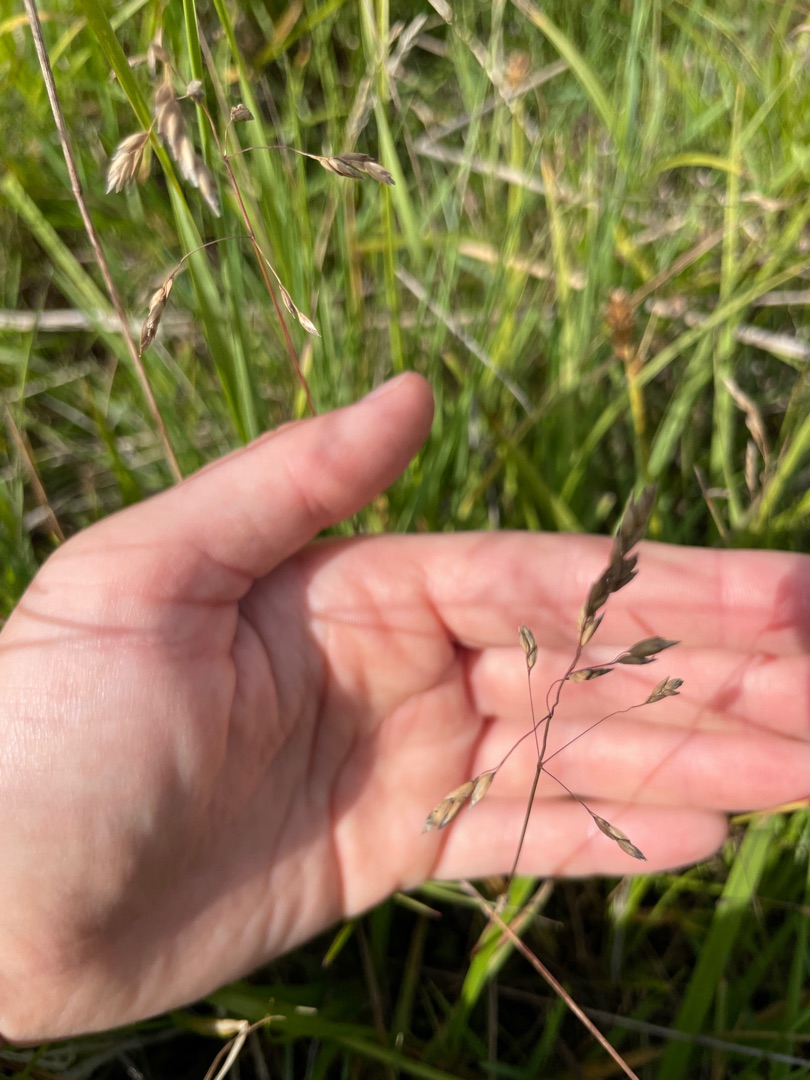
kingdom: Plantae
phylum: Tracheophyta
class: Liliopsida
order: Poales
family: Poaceae
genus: Poa
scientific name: Poa pratensis
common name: Eng-rapgræs
